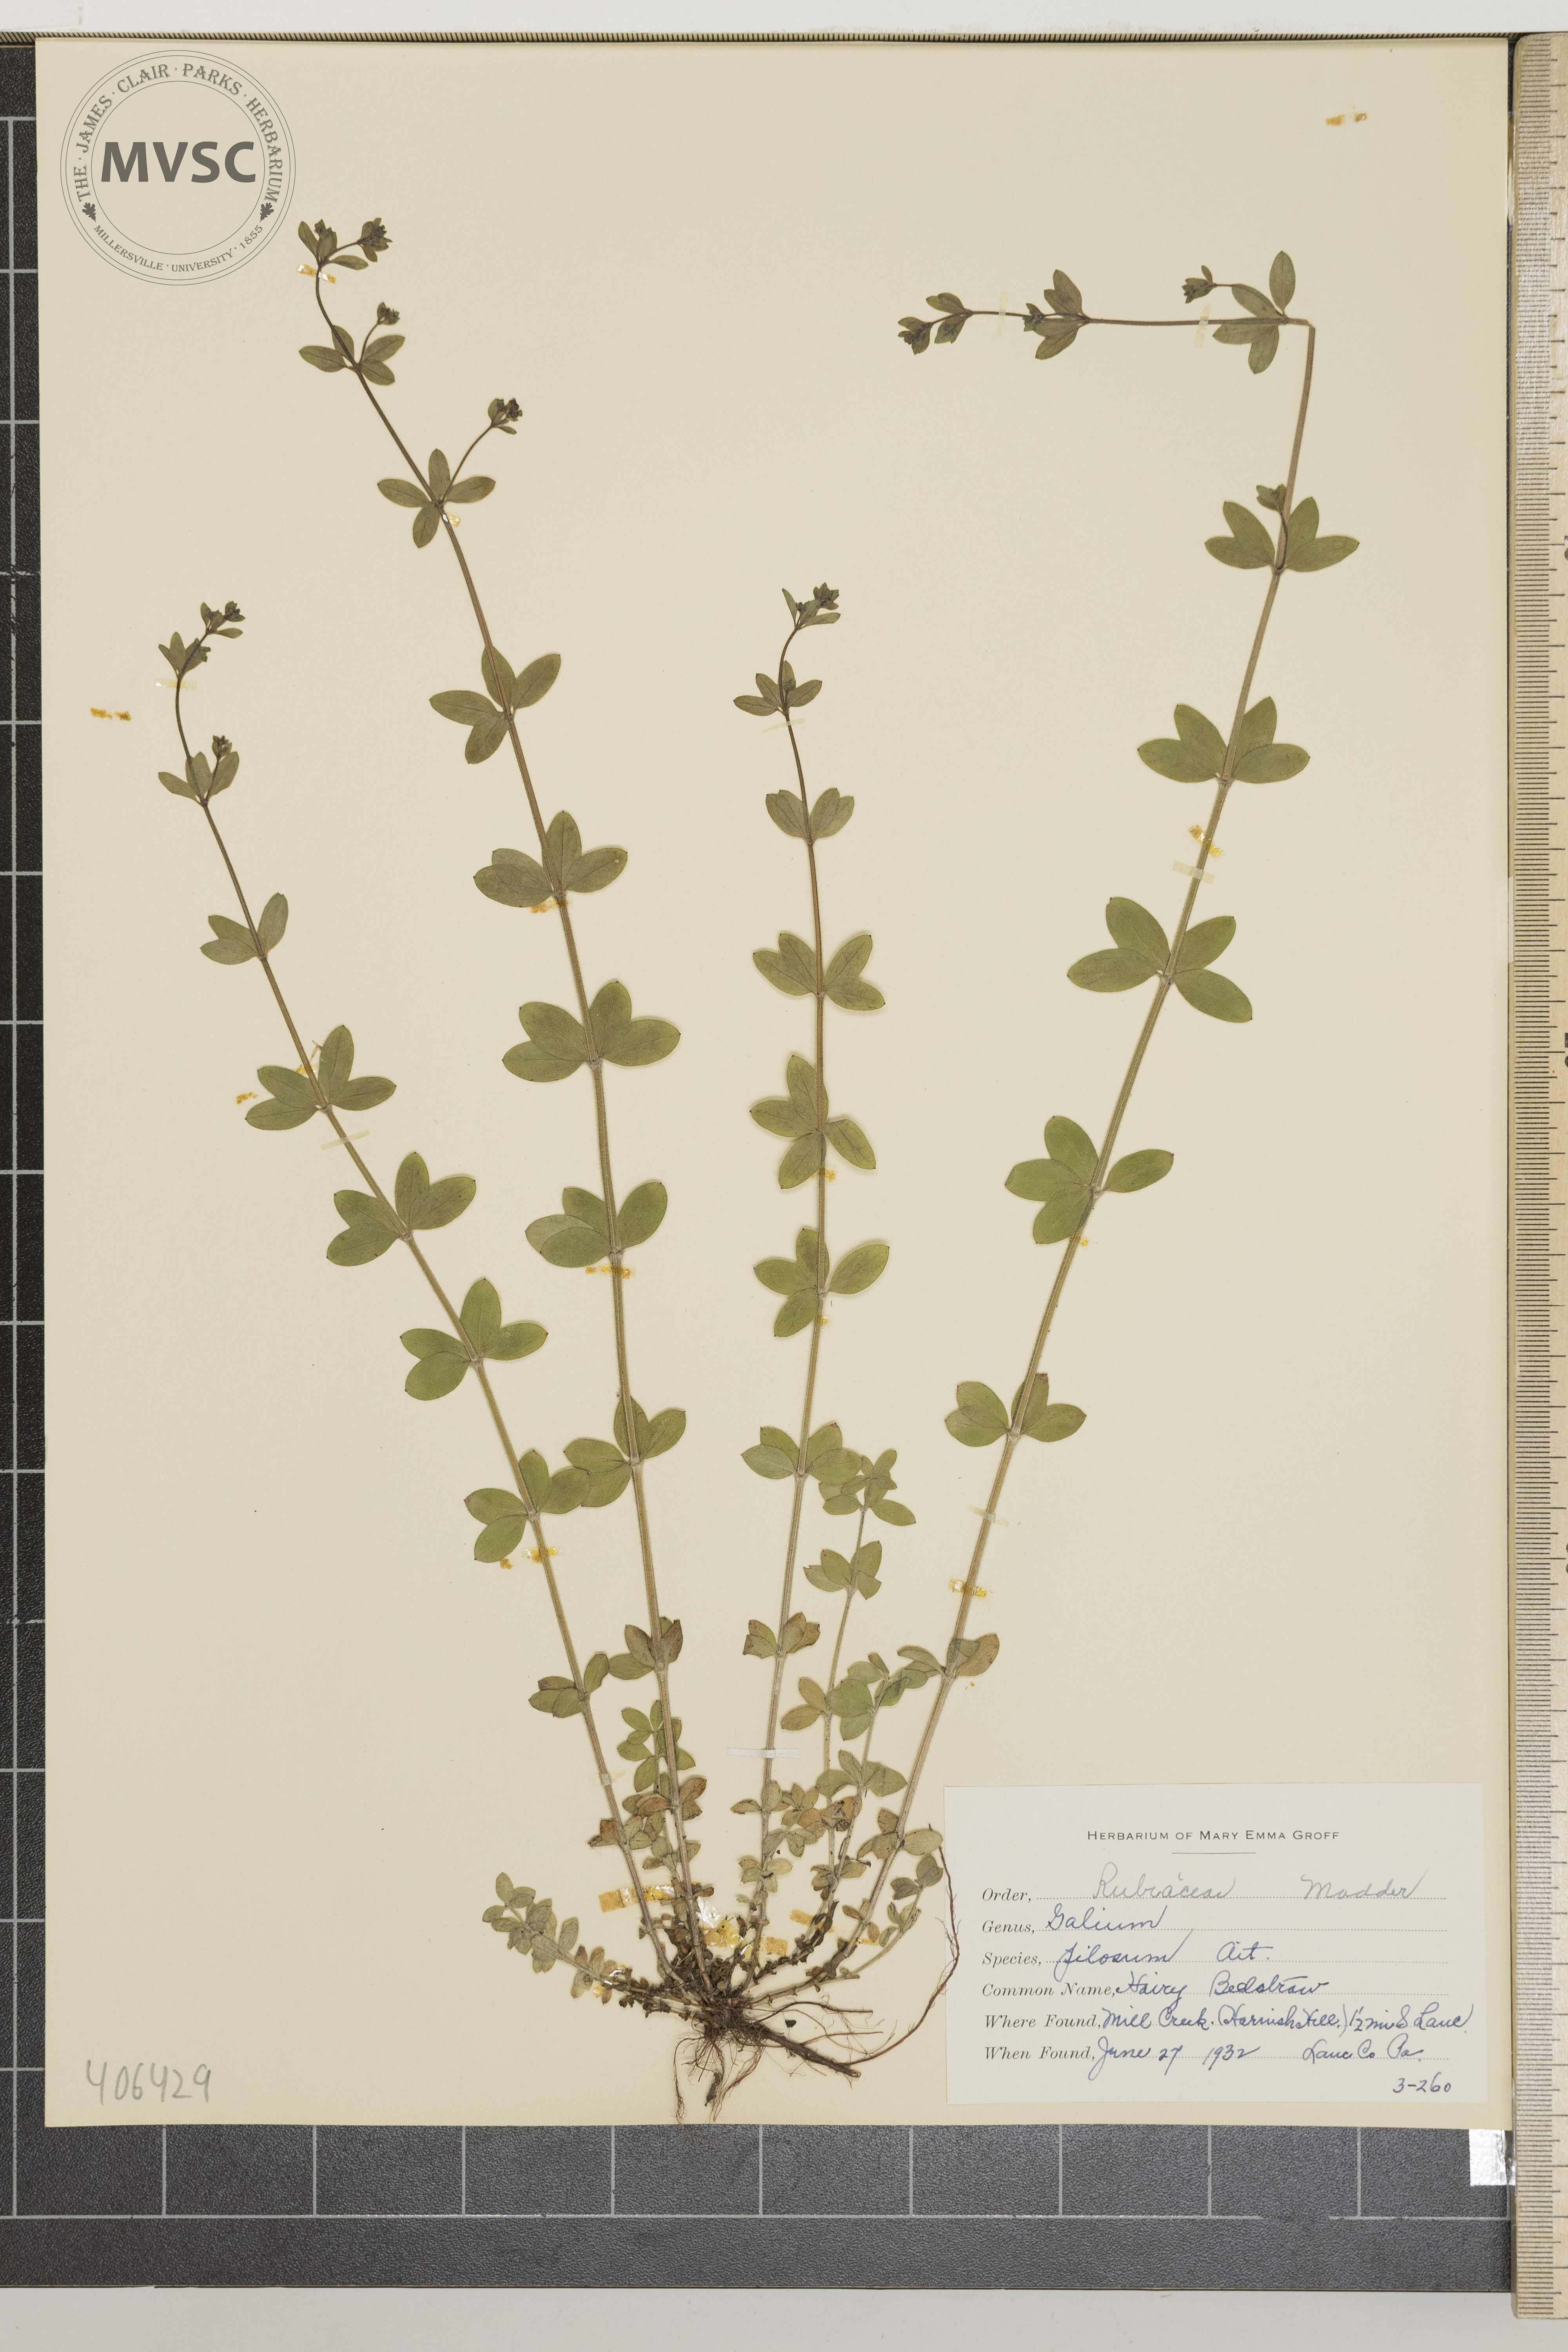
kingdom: Plantae
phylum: Tracheophyta
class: Magnoliopsida
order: Gentianales
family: Rubiaceae
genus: Galium
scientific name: Galium pilosum
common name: Hairy Bedstraw
